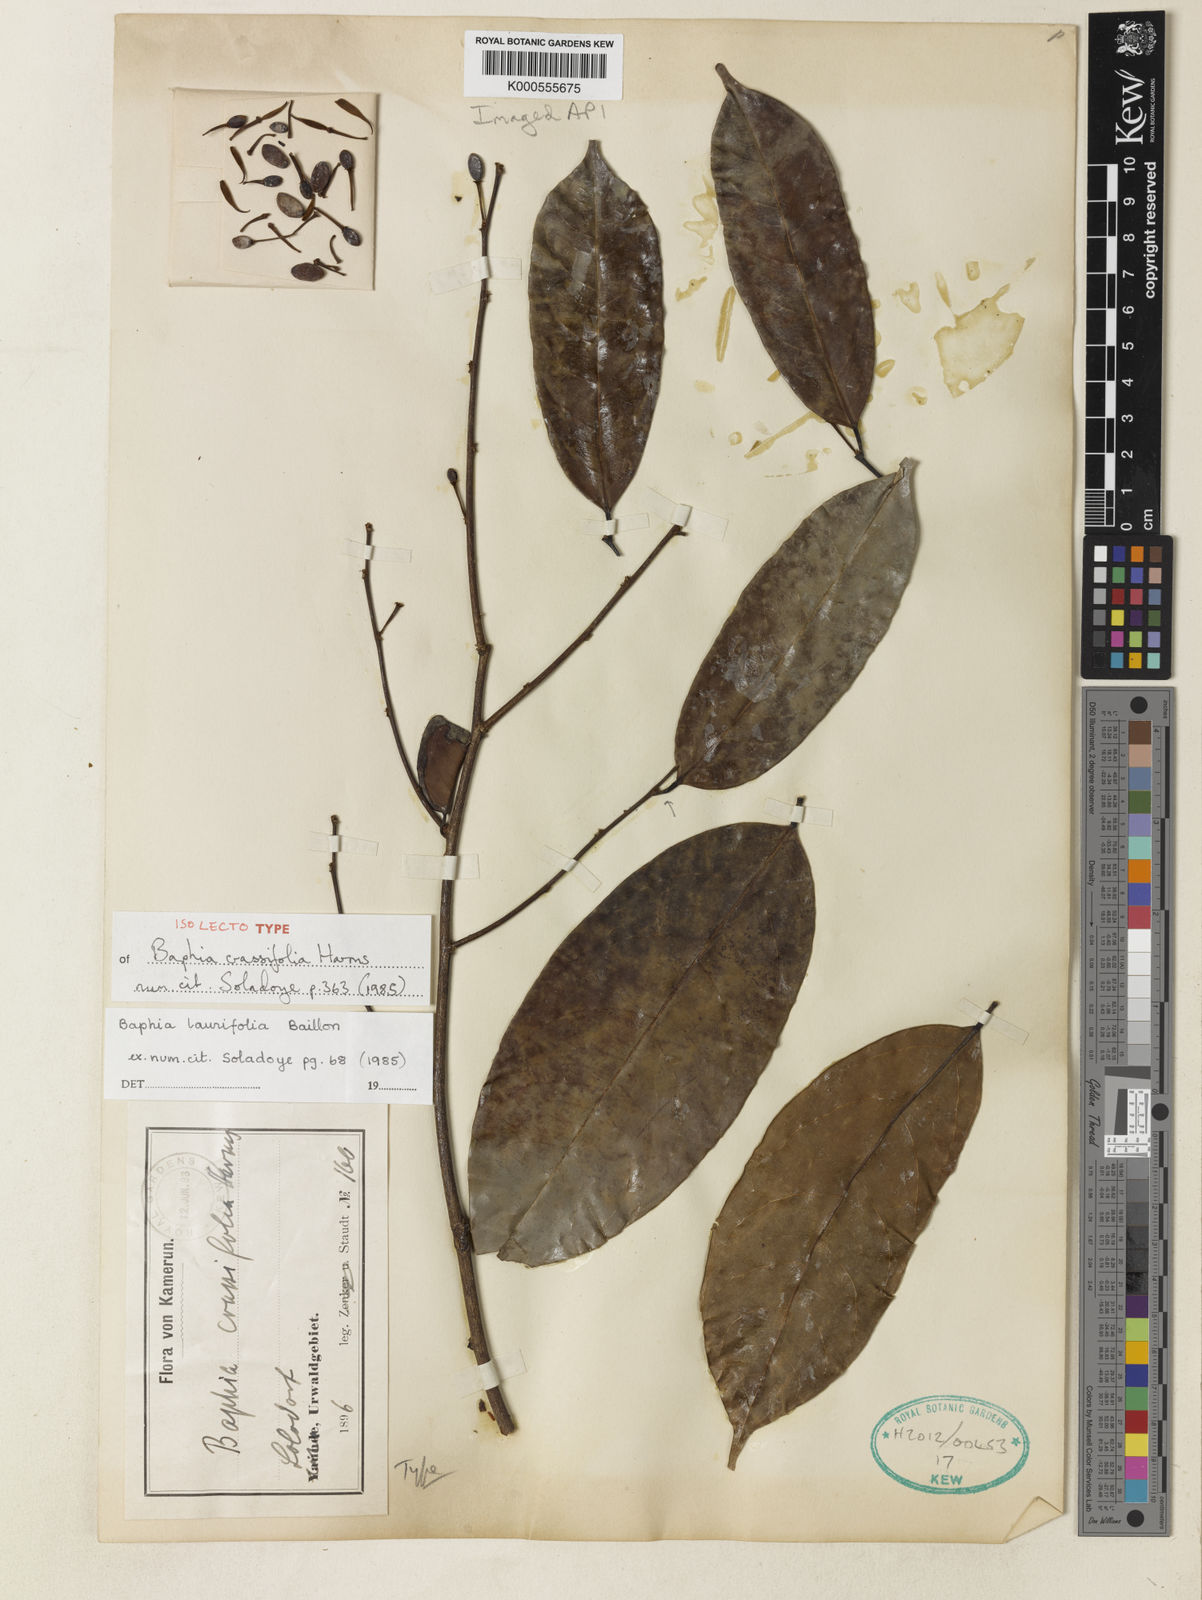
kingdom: Plantae
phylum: Tracheophyta
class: Magnoliopsida
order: Fabales
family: Fabaceae
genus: Baphia
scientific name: Baphia laurifolia
